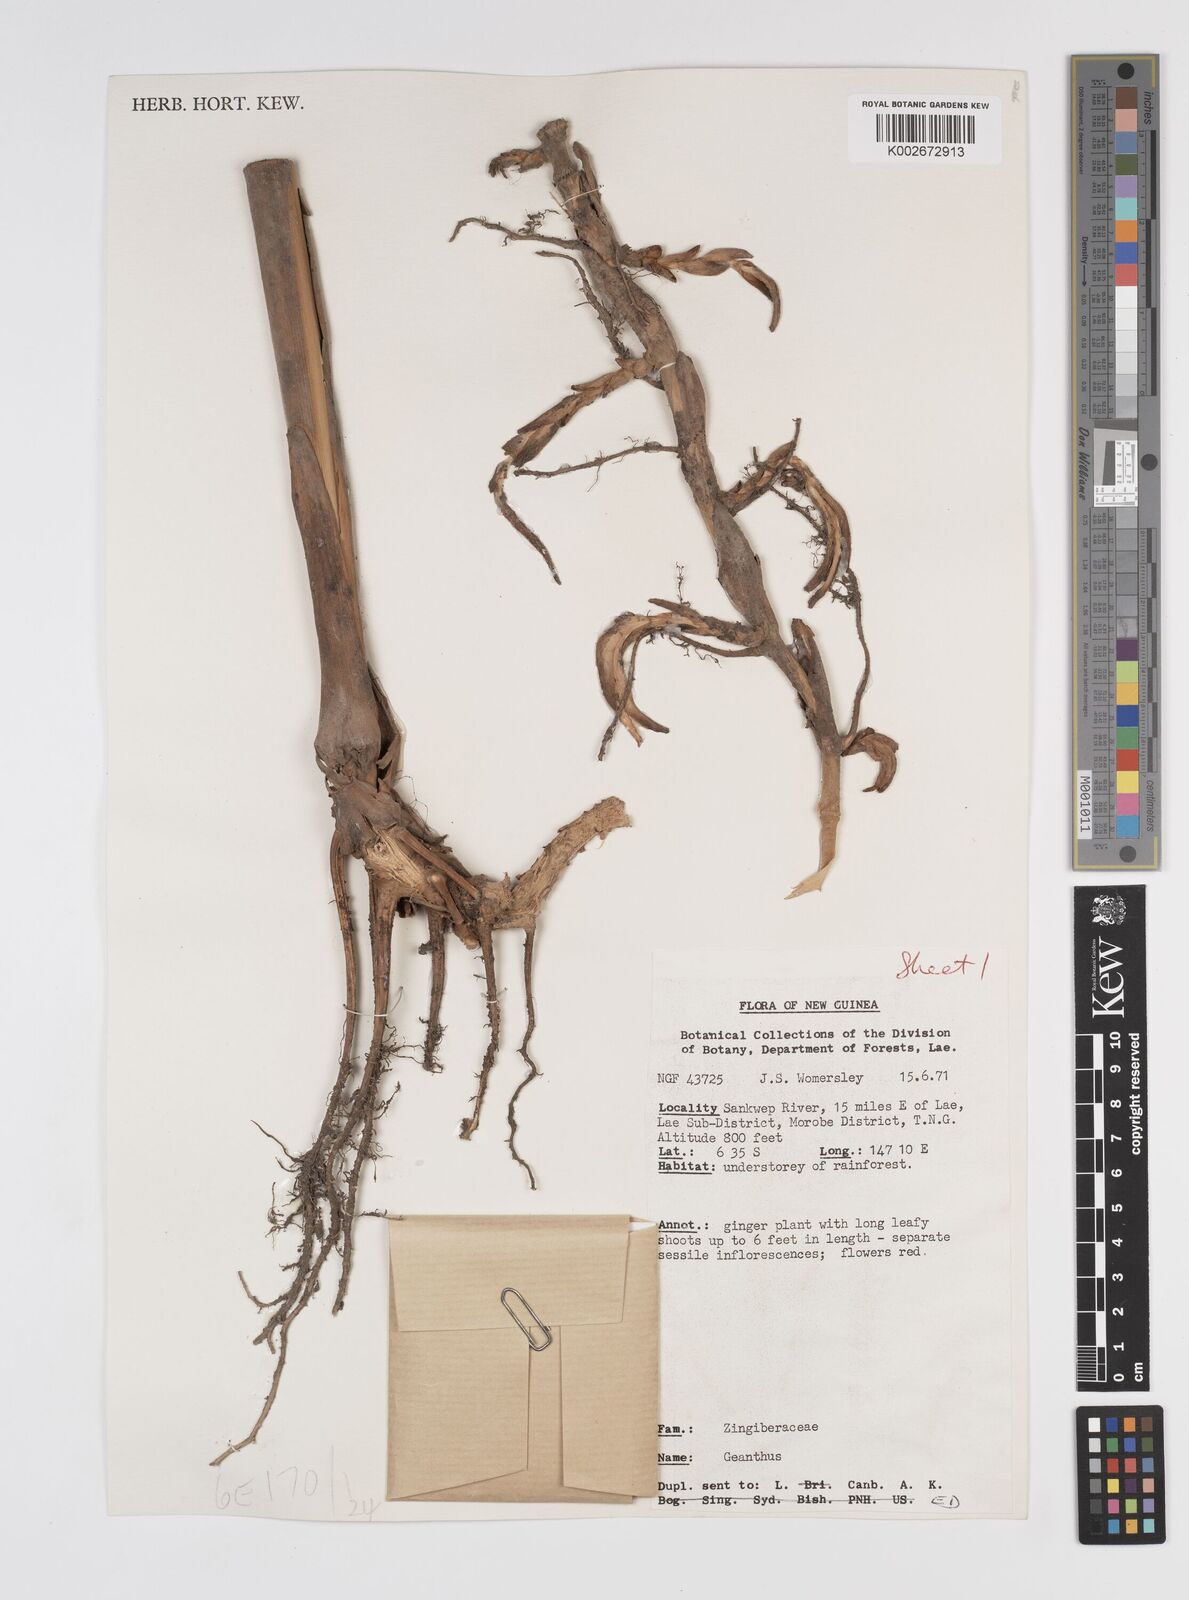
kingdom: Plantae
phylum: Tracheophyta
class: Liliopsida
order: Zingiberales
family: Zingiberaceae
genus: Etlingera
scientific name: Etlingera
